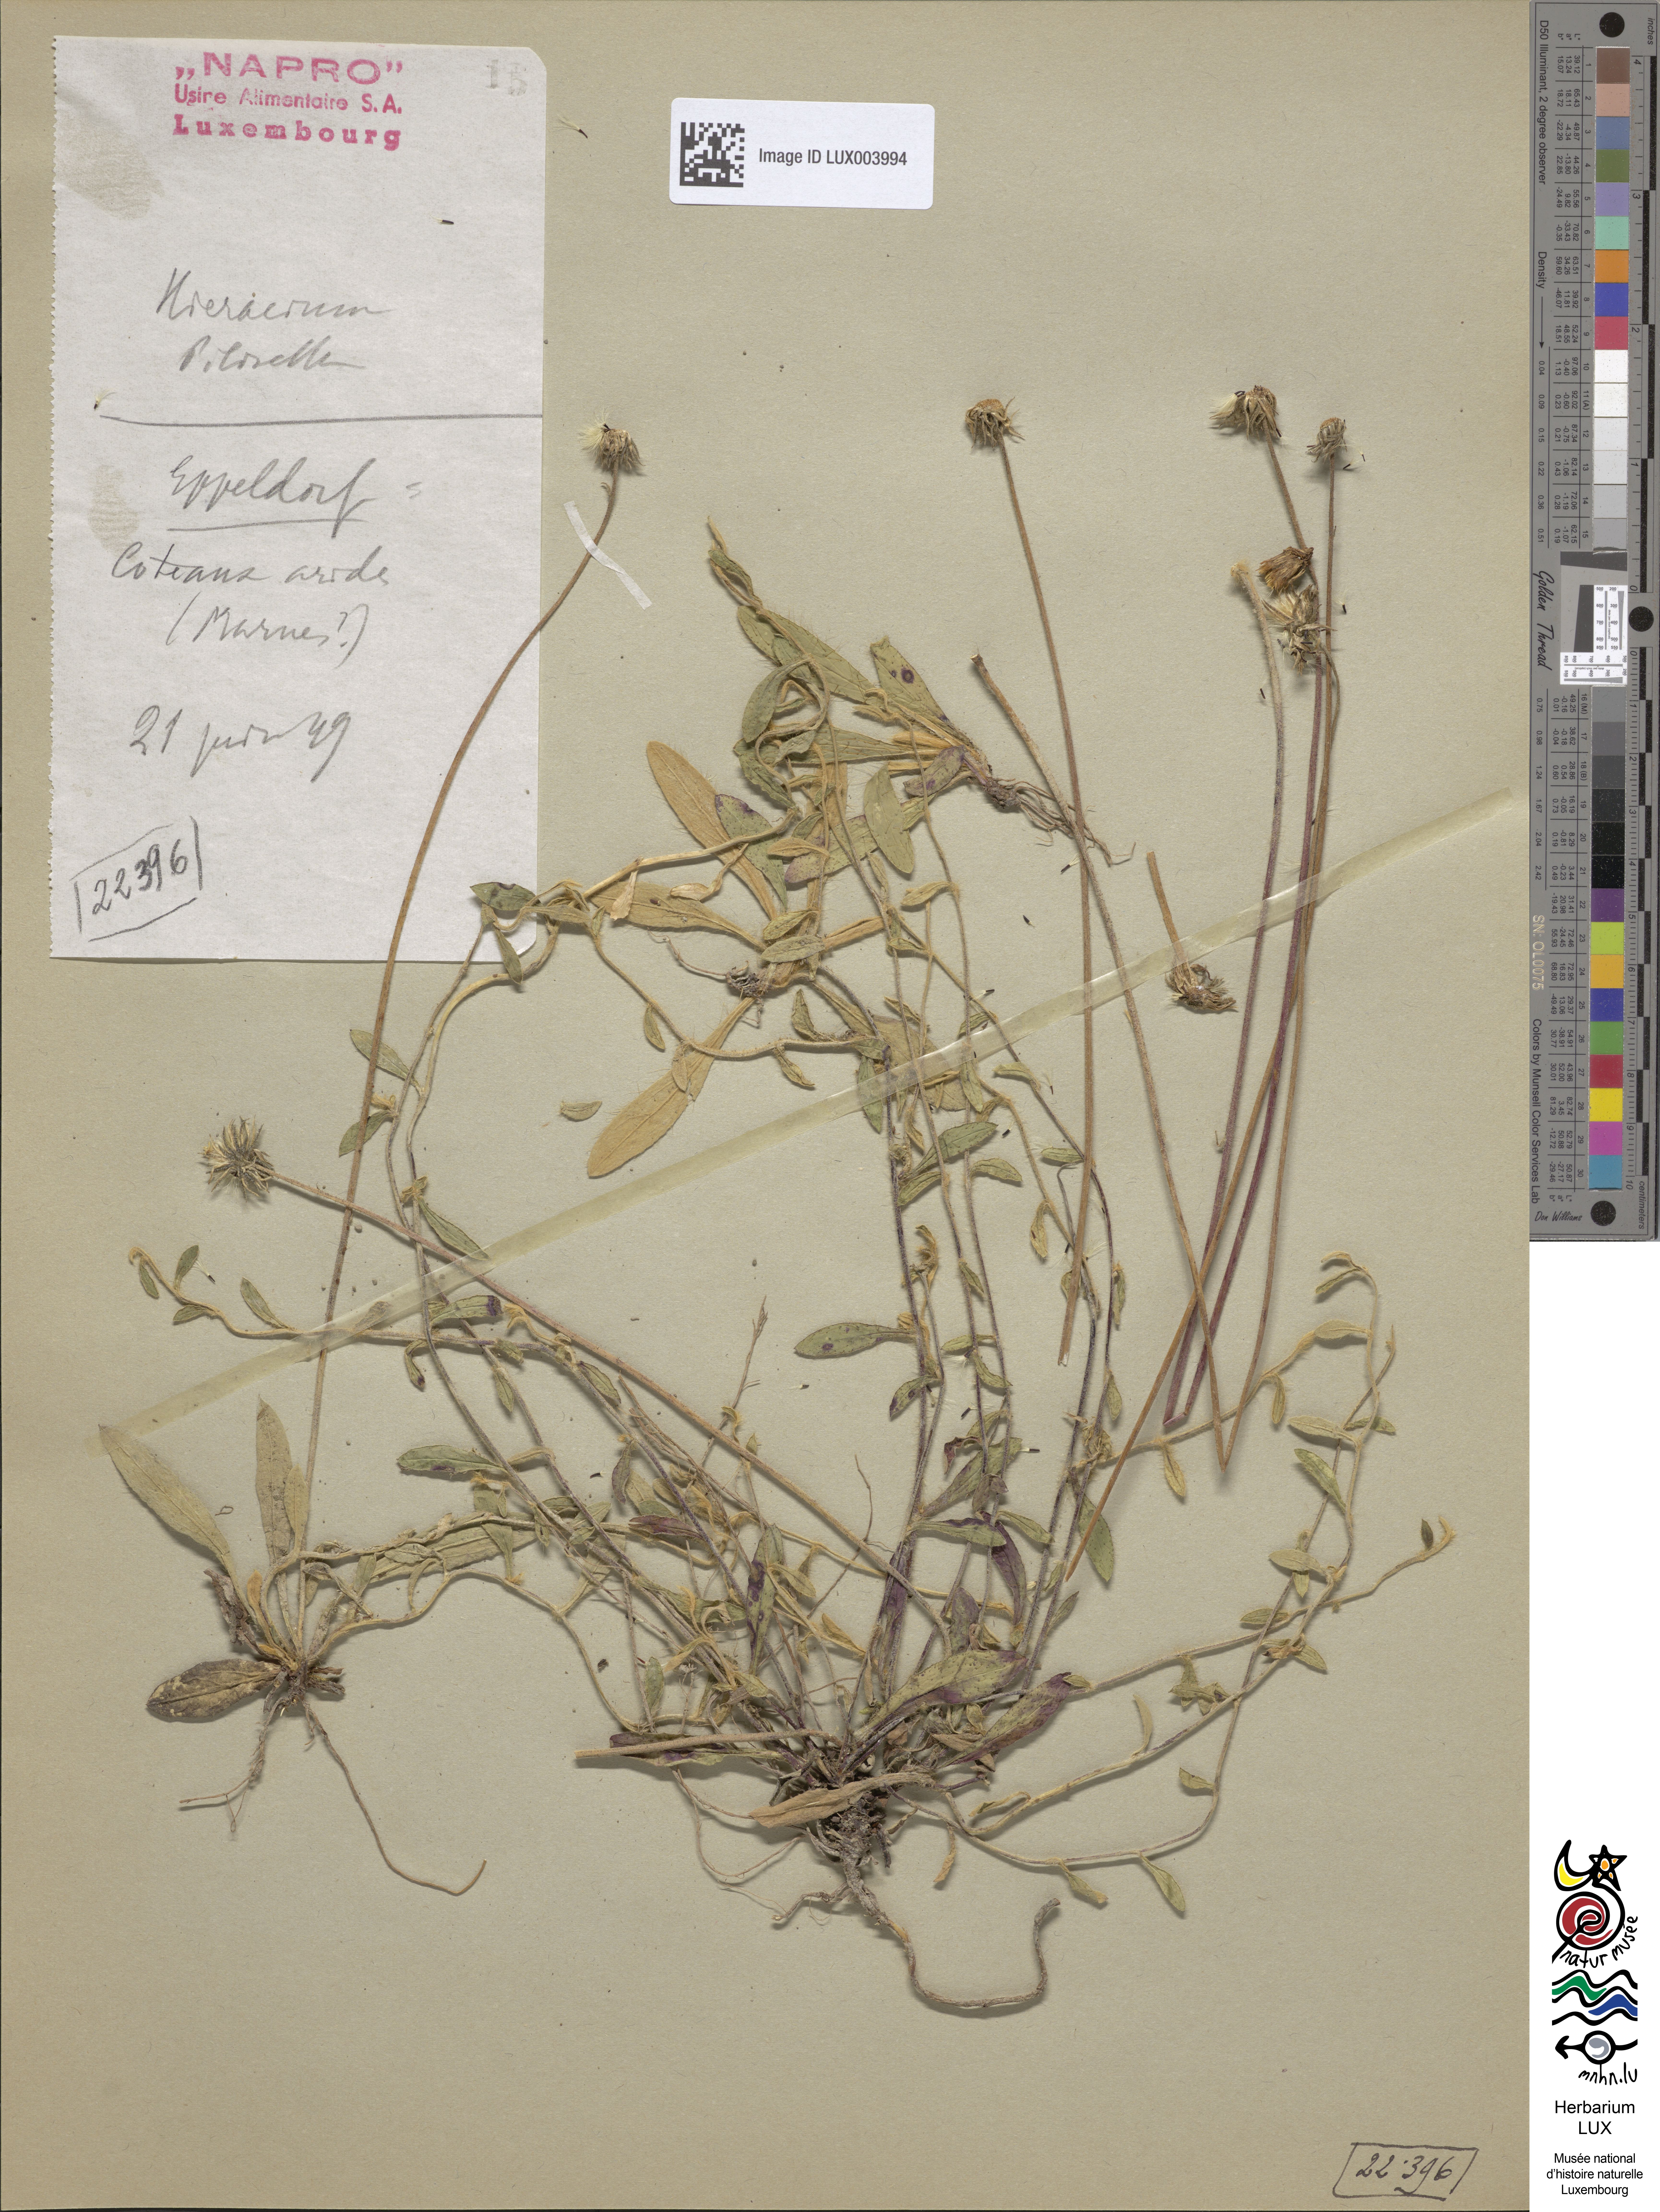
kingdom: Plantae
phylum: Tracheophyta
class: Magnoliopsida
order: Asterales
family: Asteraceae
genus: Pilosella
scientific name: Pilosella officinarum
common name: Mouse-ear hawkweed
